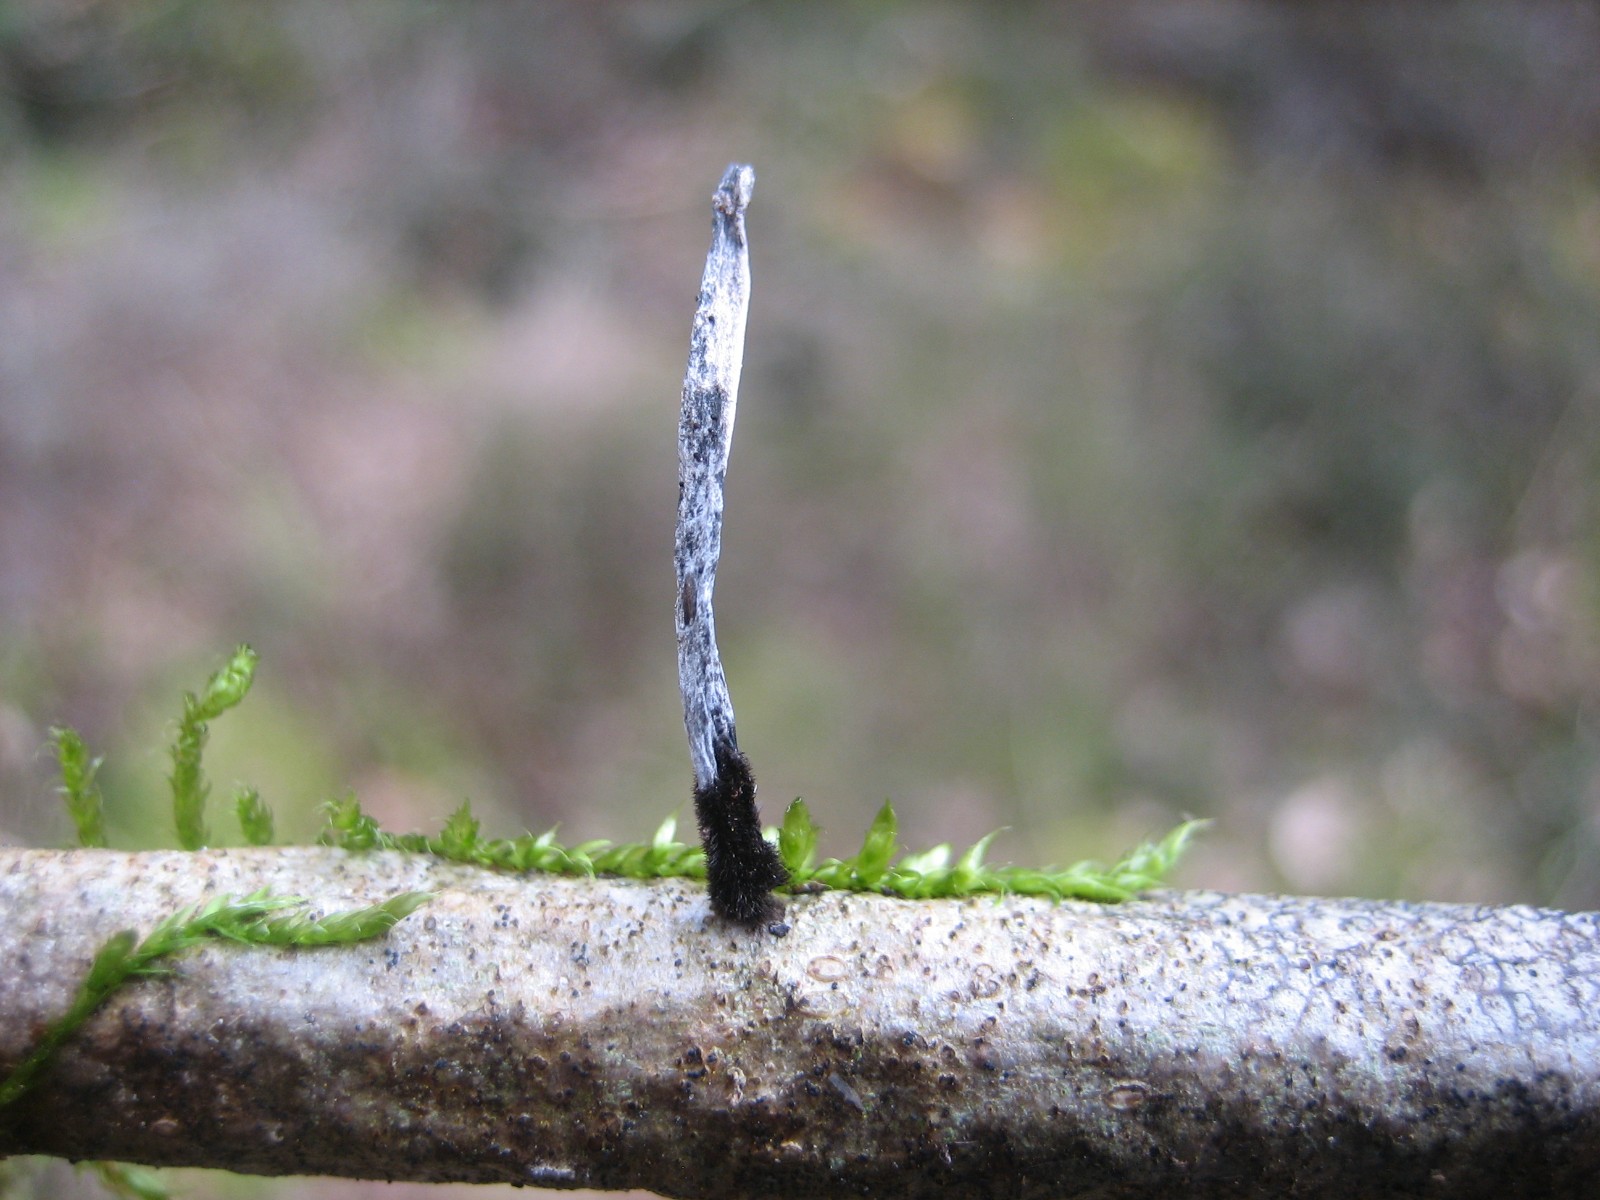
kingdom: Fungi
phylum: Ascomycota
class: Sordariomycetes
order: Xylariales
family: Xylariaceae
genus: Xylaria
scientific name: Xylaria hypoxylon
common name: grenet stødsvamp
